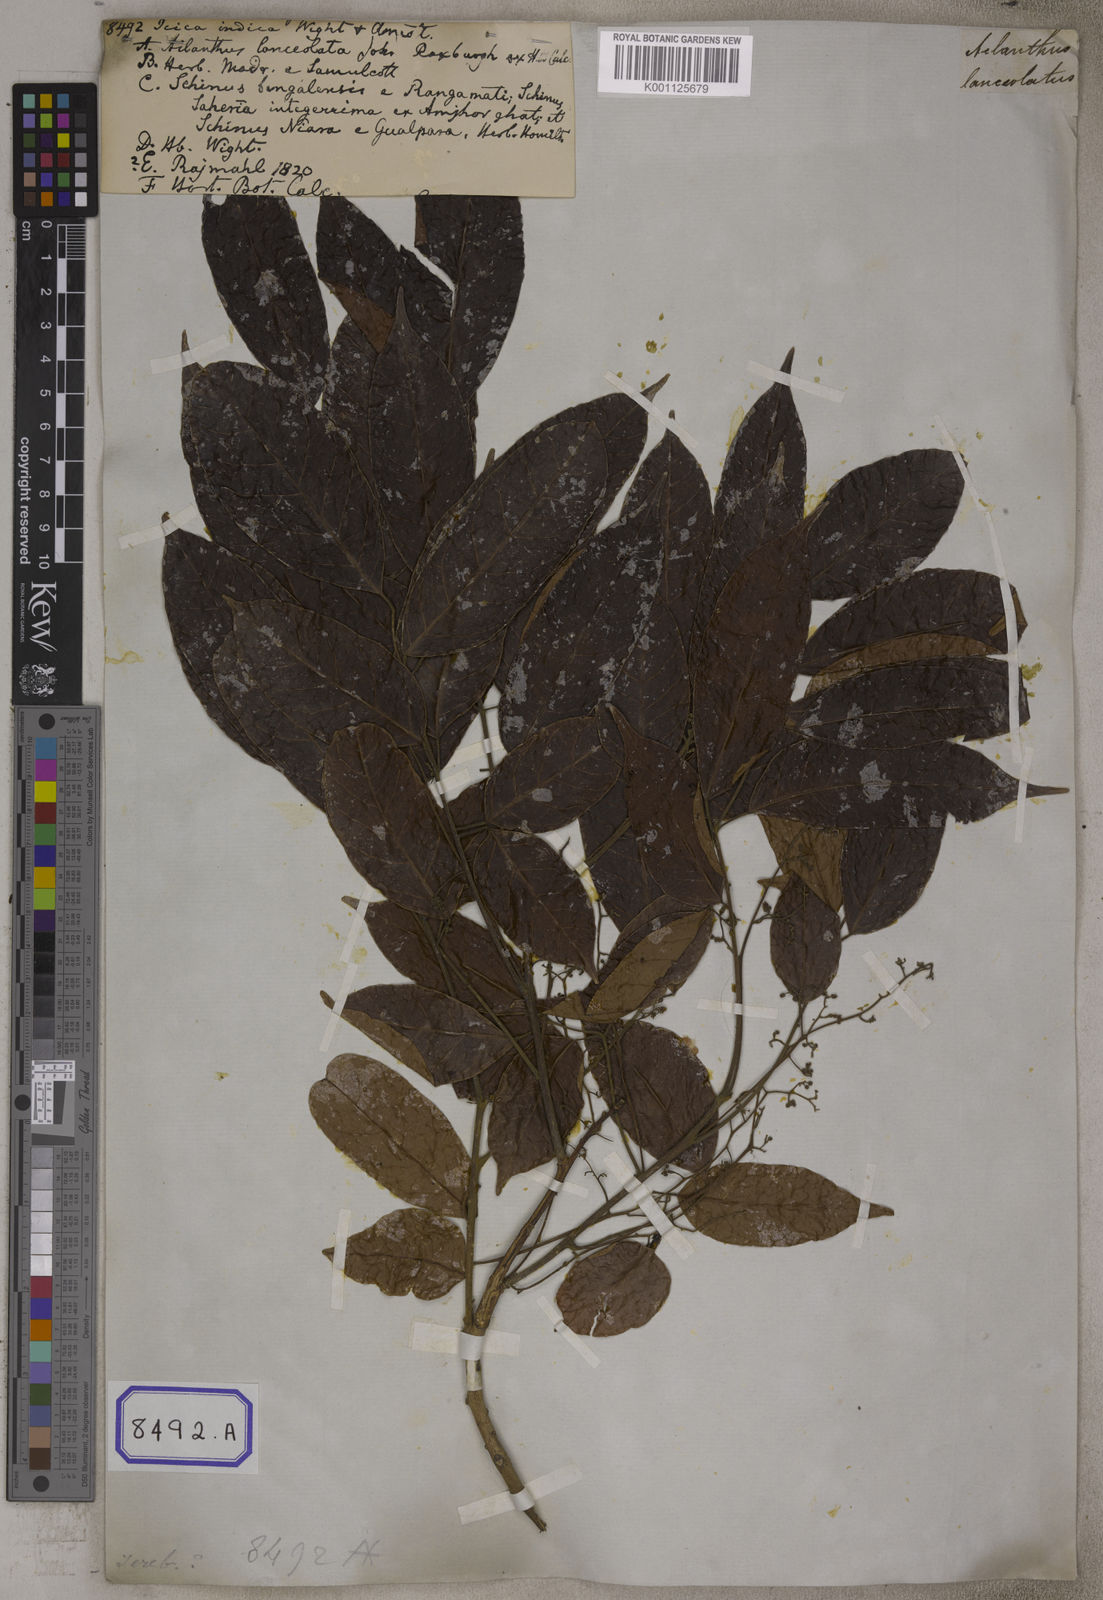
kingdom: Plantae
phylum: Tracheophyta
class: Magnoliopsida
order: Sapindales
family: Burseraceae
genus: Protium
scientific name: Protium serratum
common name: Murtenga
